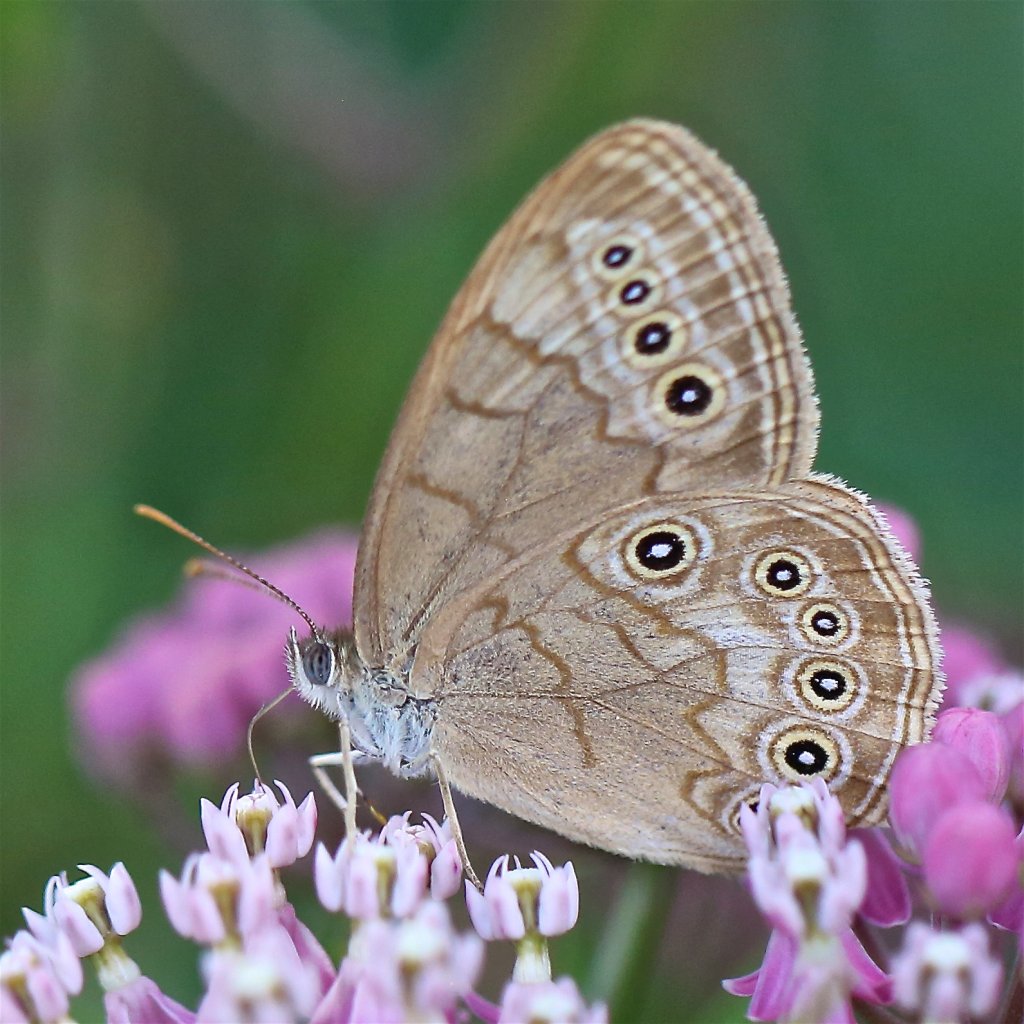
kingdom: Animalia
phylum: Arthropoda
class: Insecta
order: Lepidoptera
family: Nymphalidae
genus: Lethe
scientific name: Lethe eurydice
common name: Eyed Brown
